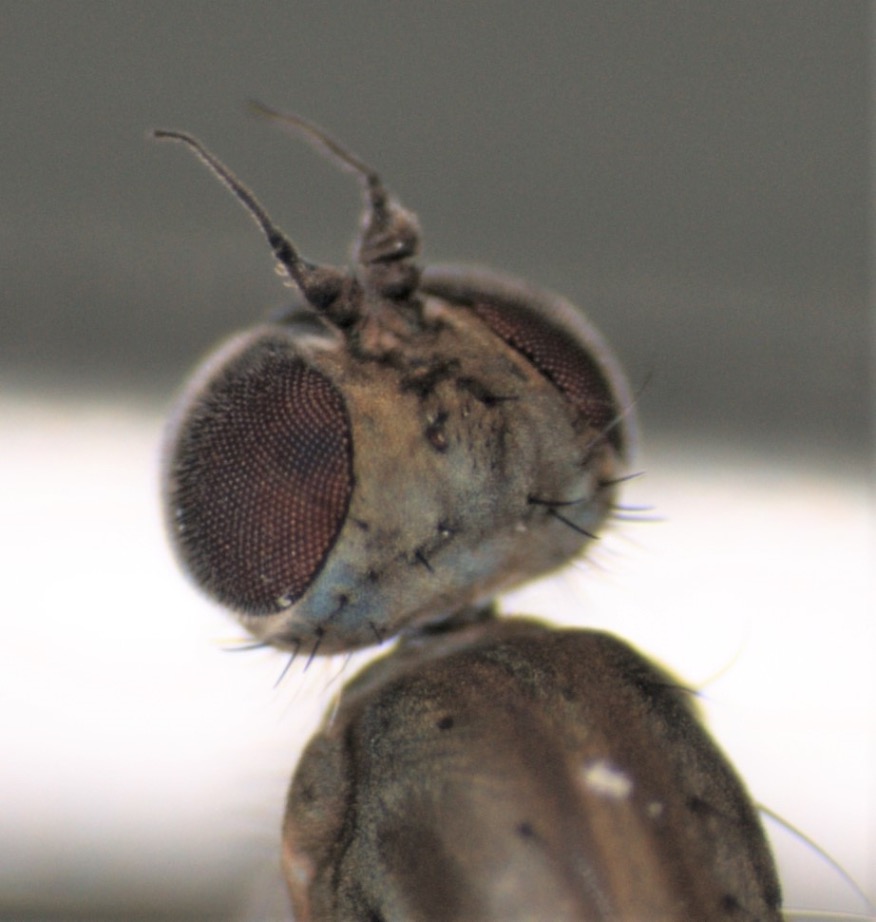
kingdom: Animalia
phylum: Arthropoda
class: Insecta
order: Diptera
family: Empididae
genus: Clinocera
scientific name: Clinocera stagnalis
